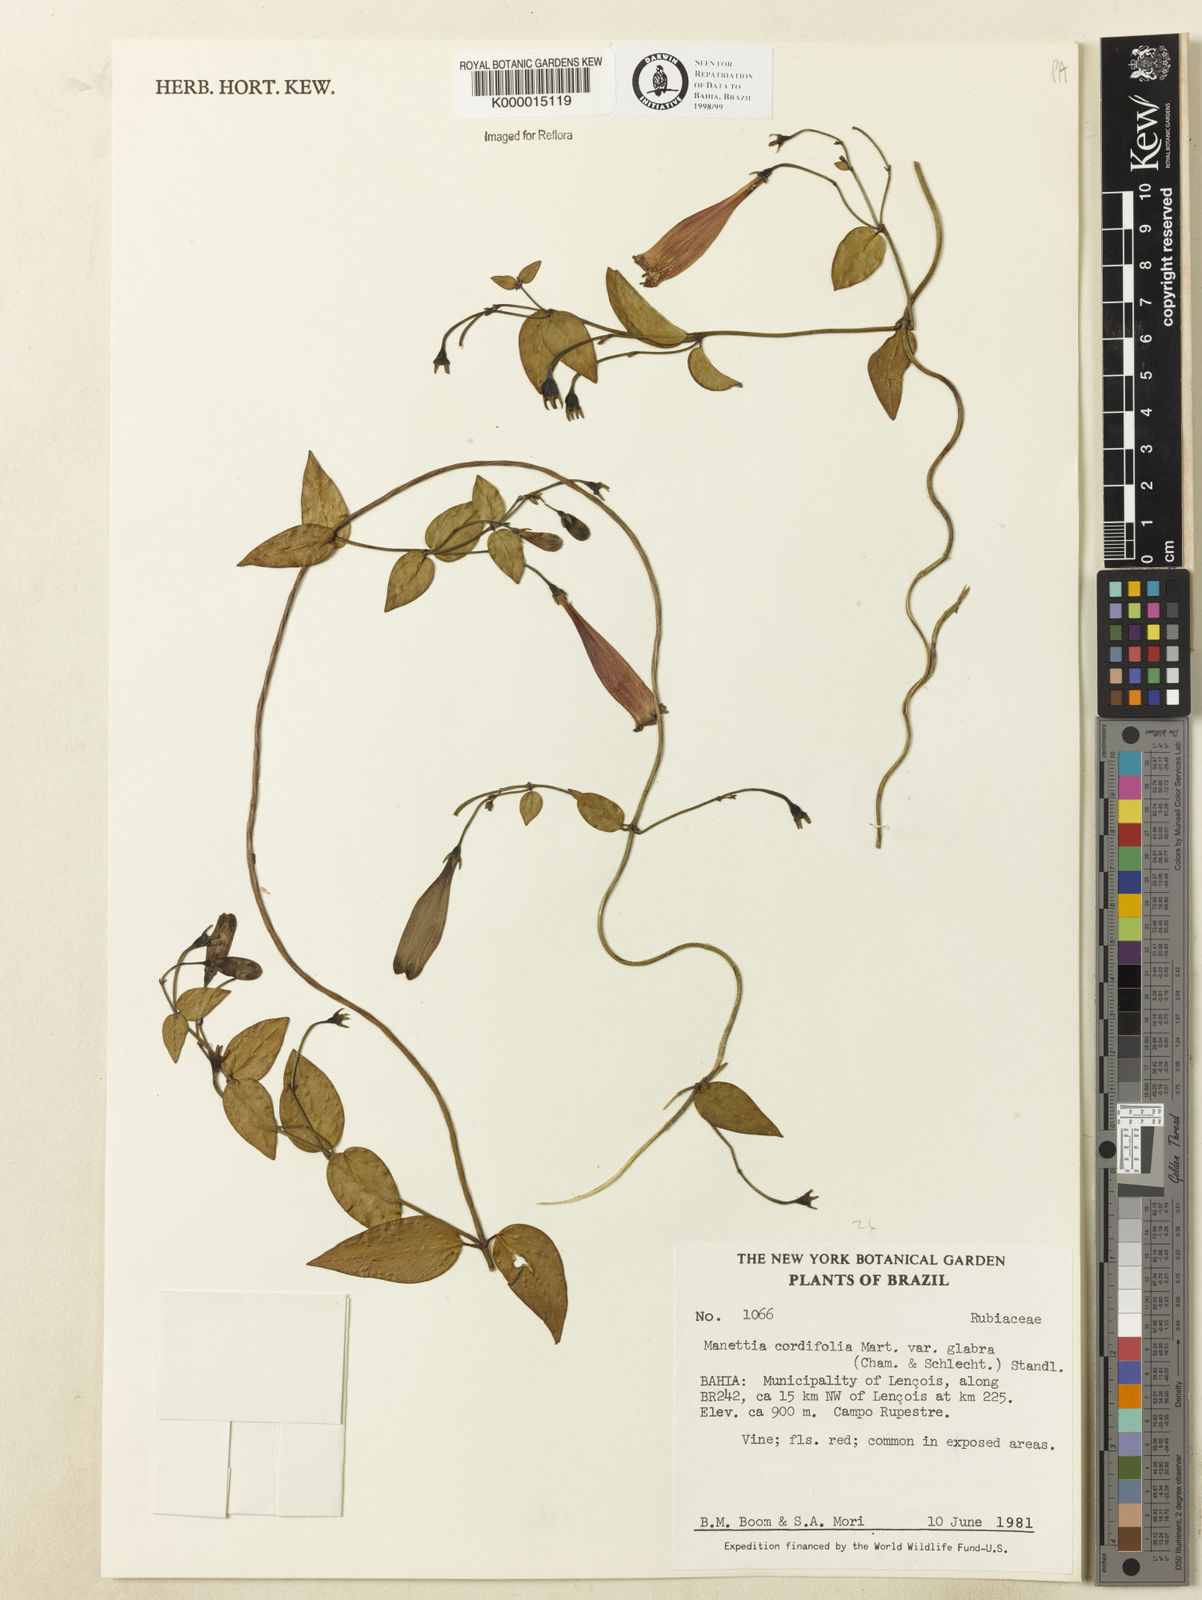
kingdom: Plantae
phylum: Tracheophyta
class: Magnoliopsida
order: Gentianales
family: Rubiaceae
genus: Manettia
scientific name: Manettia cordifolia
